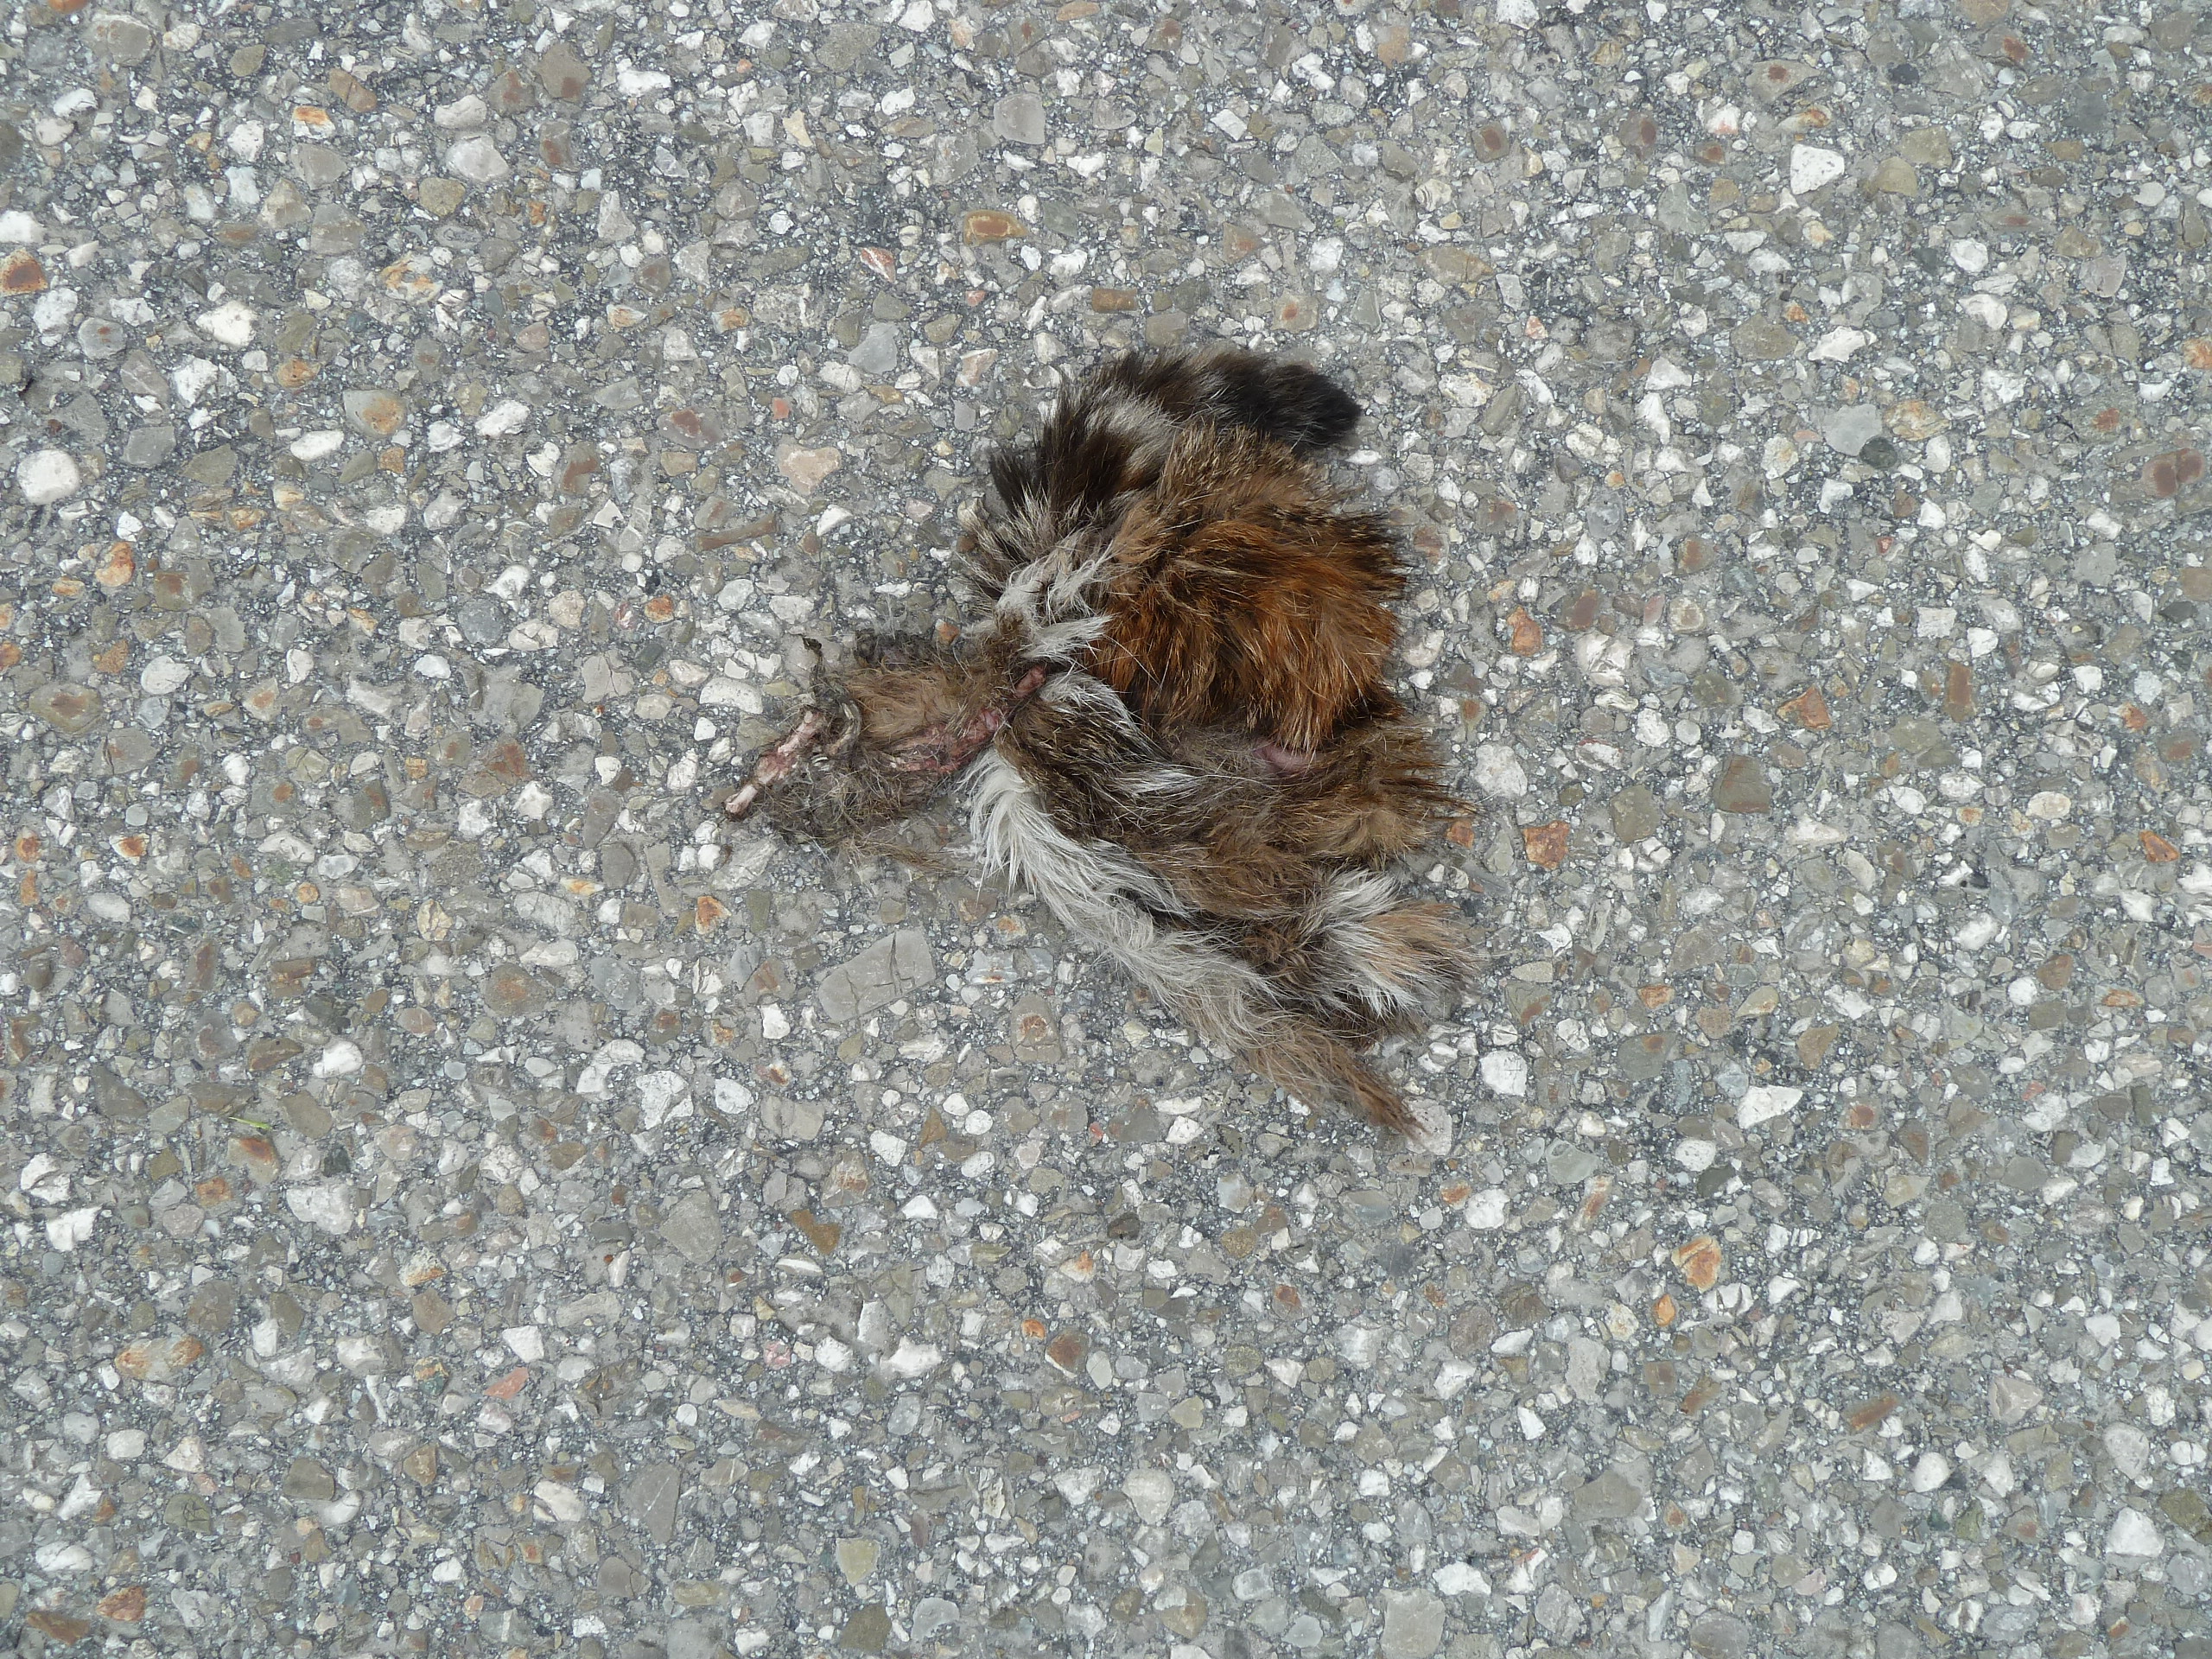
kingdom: Animalia
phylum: Chordata
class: Mammalia
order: Carnivora
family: Felidae
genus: Felis
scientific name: Felis catus
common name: Domestic cat
